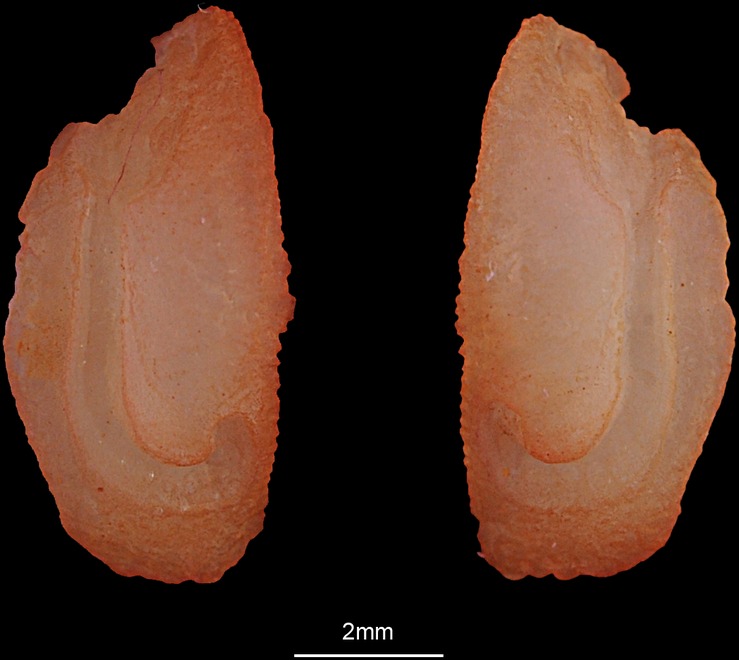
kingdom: Animalia
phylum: Chordata
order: Perciformes
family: Haemulidae
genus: Diagramma
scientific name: Diagramma pictum
